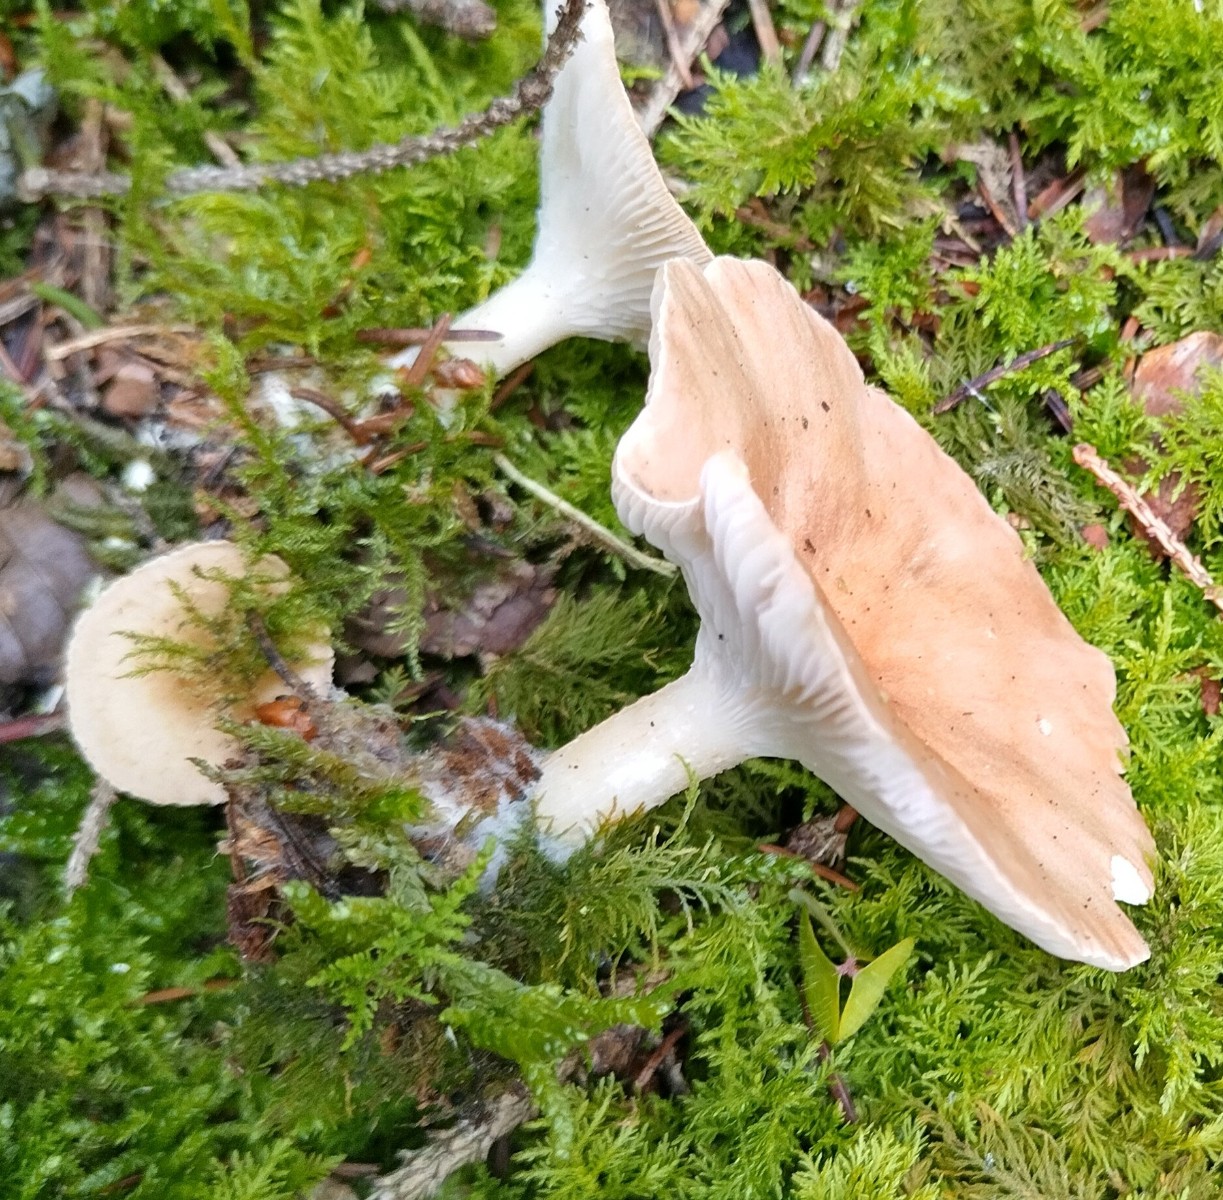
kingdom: Fungi
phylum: Basidiomycota
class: Agaricomycetes
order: Agaricales
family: Tricholomataceae
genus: Infundibulicybe
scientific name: Infundibulicybe gibba
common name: almindelig tragthat
